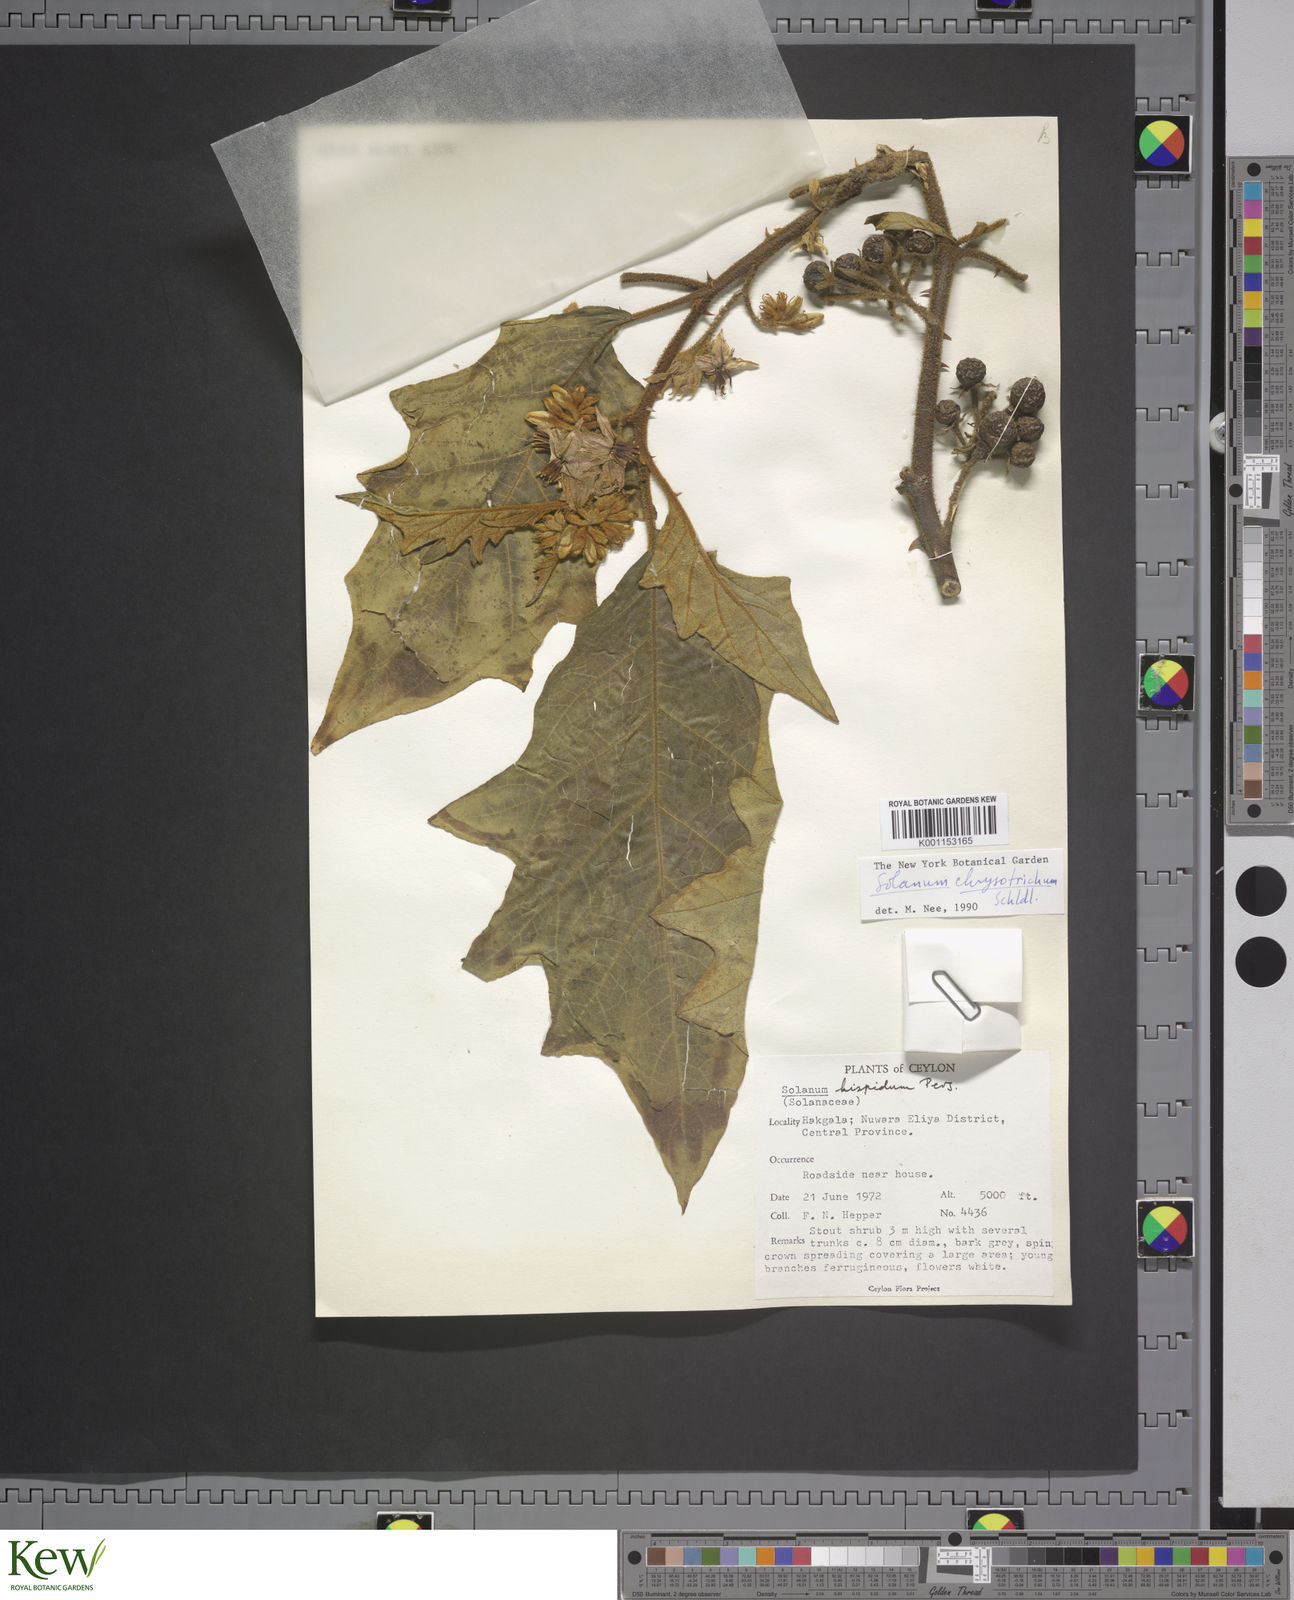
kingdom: Plantae
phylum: Tracheophyta
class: Magnoliopsida
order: Solanales
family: Solanaceae
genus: Solanum
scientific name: Solanum asperolanatum
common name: Devil's-fig
